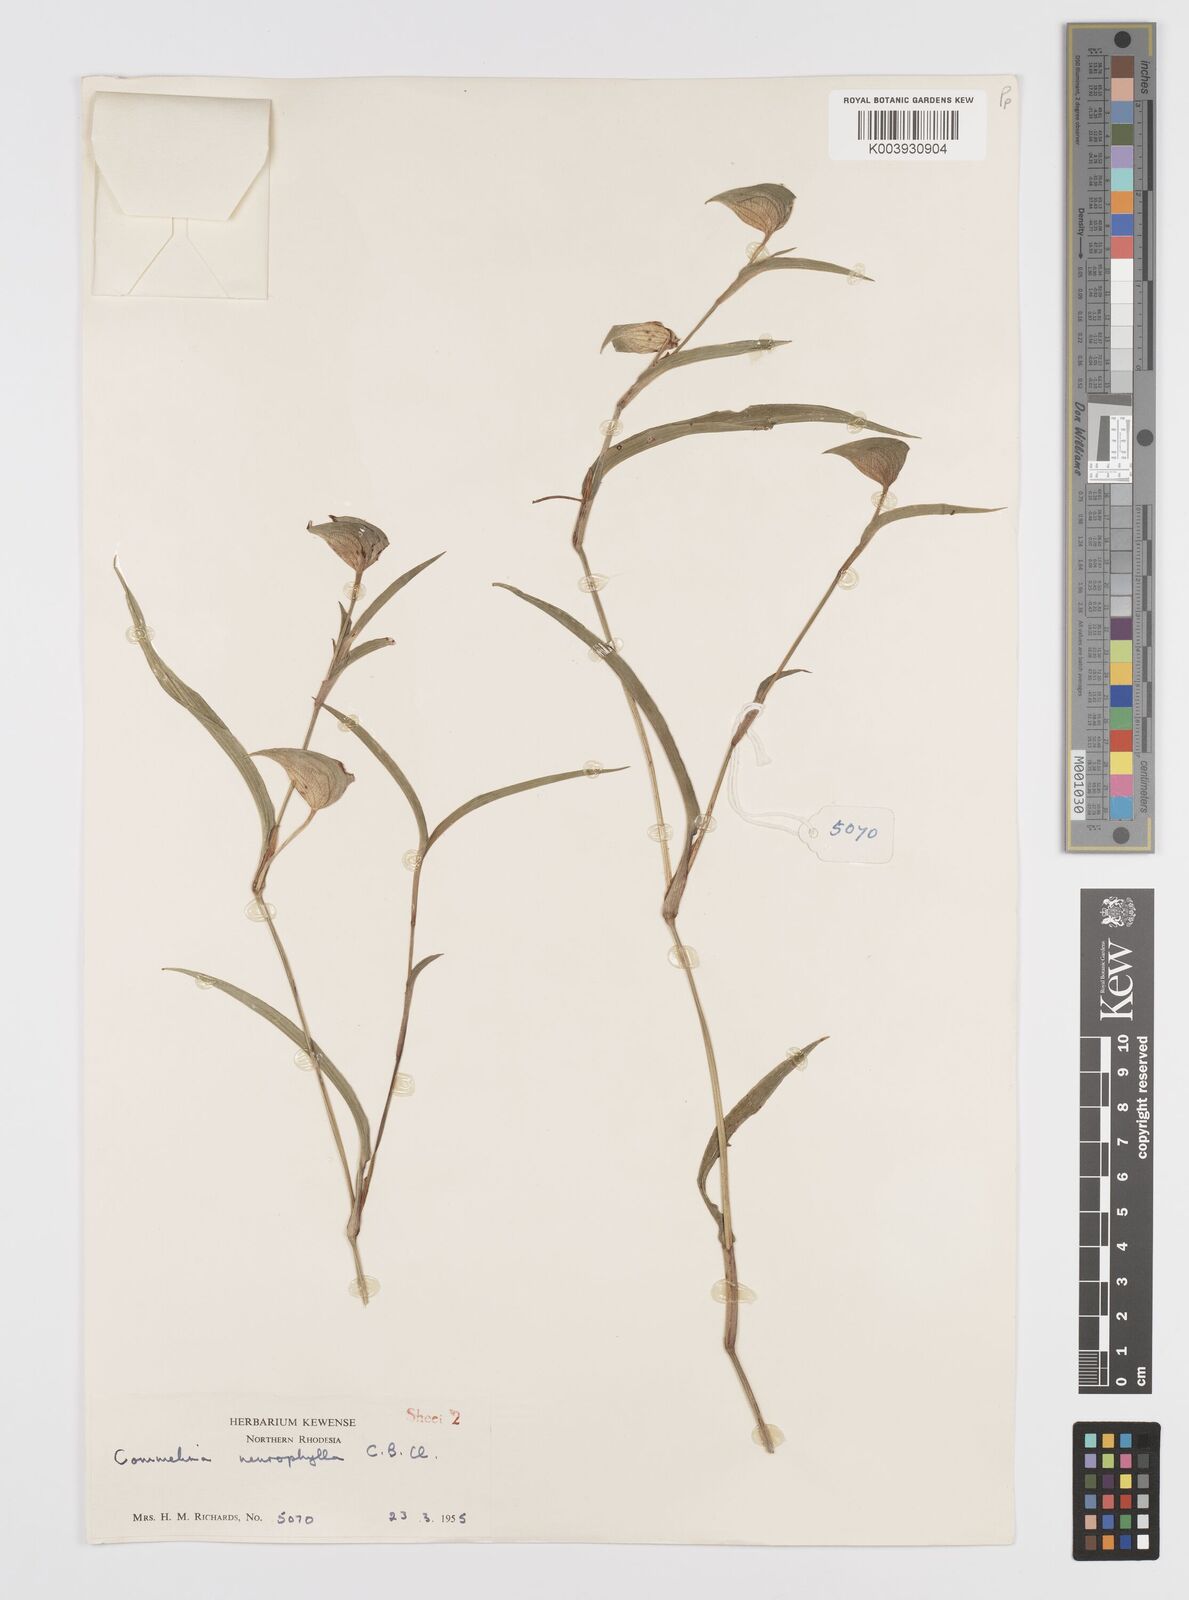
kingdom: Plantae
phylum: Tracheophyta
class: Liliopsida
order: Commelinales
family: Commelinaceae
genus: Commelina
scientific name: Commelina neurophylla
